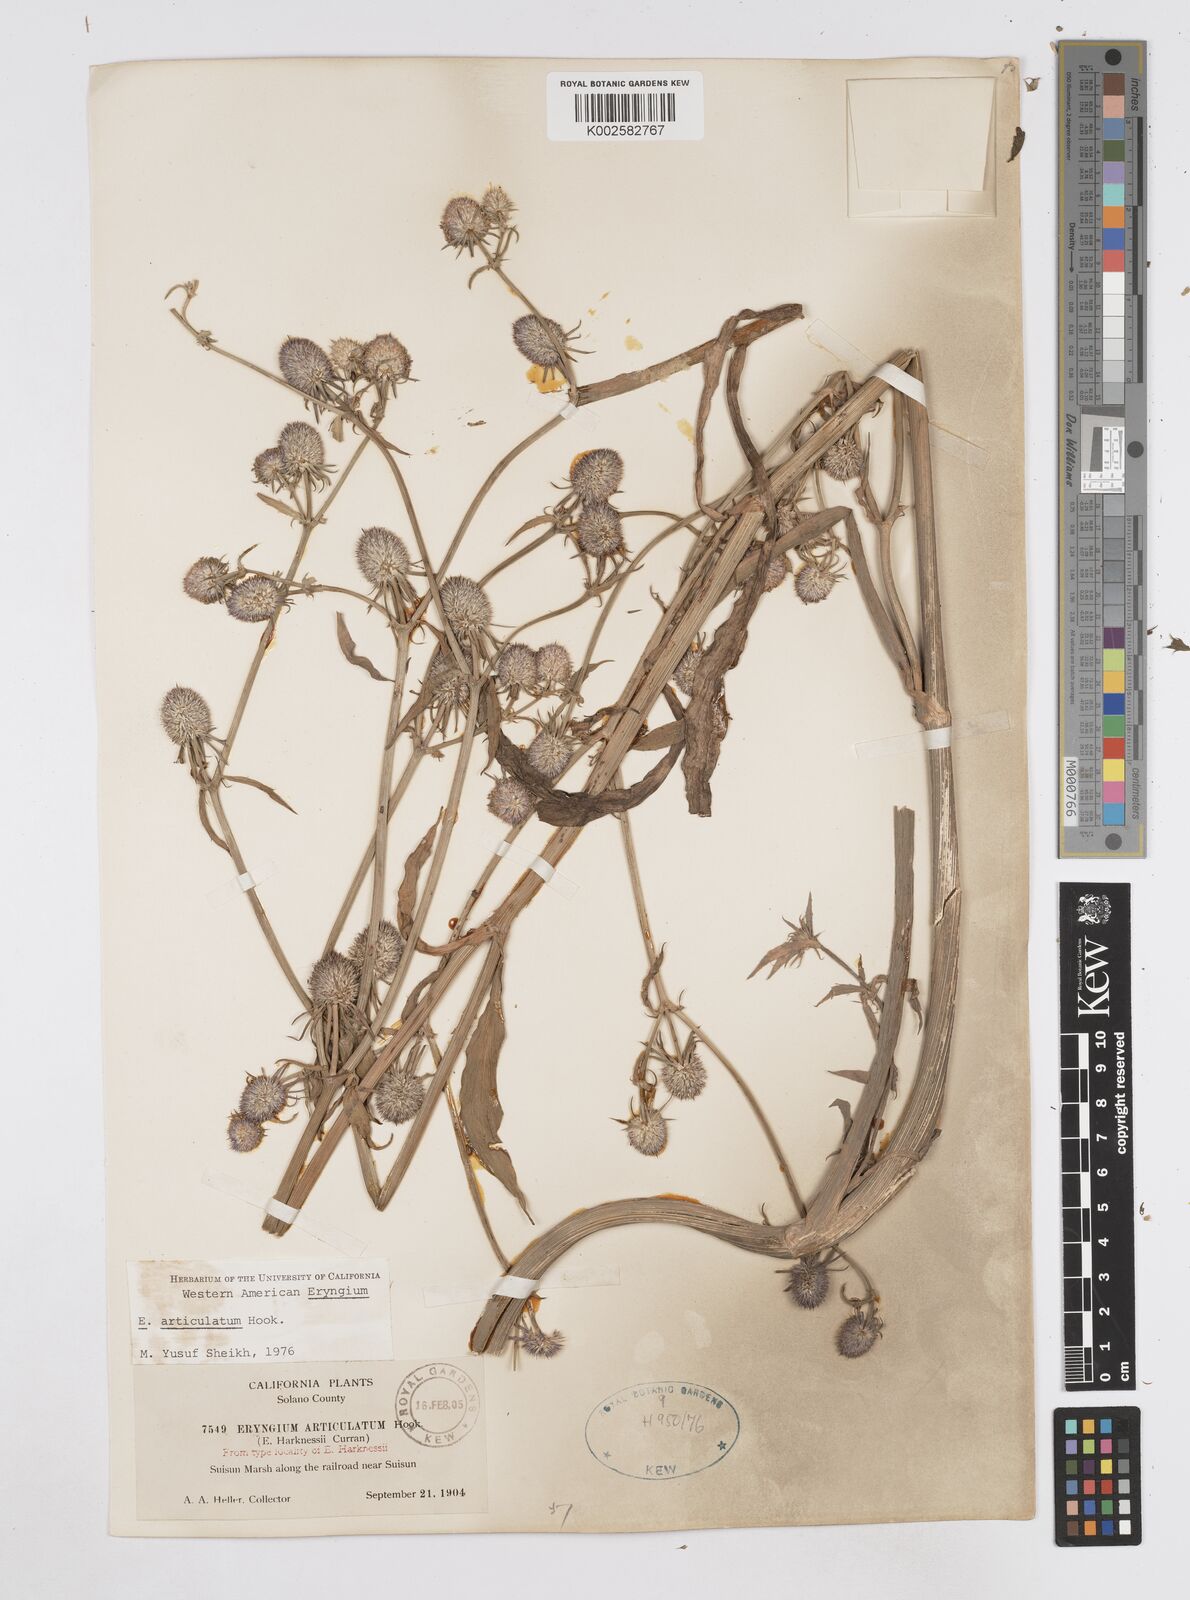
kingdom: Plantae
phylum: Tracheophyta
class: Magnoliopsida
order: Apiales
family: Apiaceae
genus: Eryngium
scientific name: Eryngium articulatum
